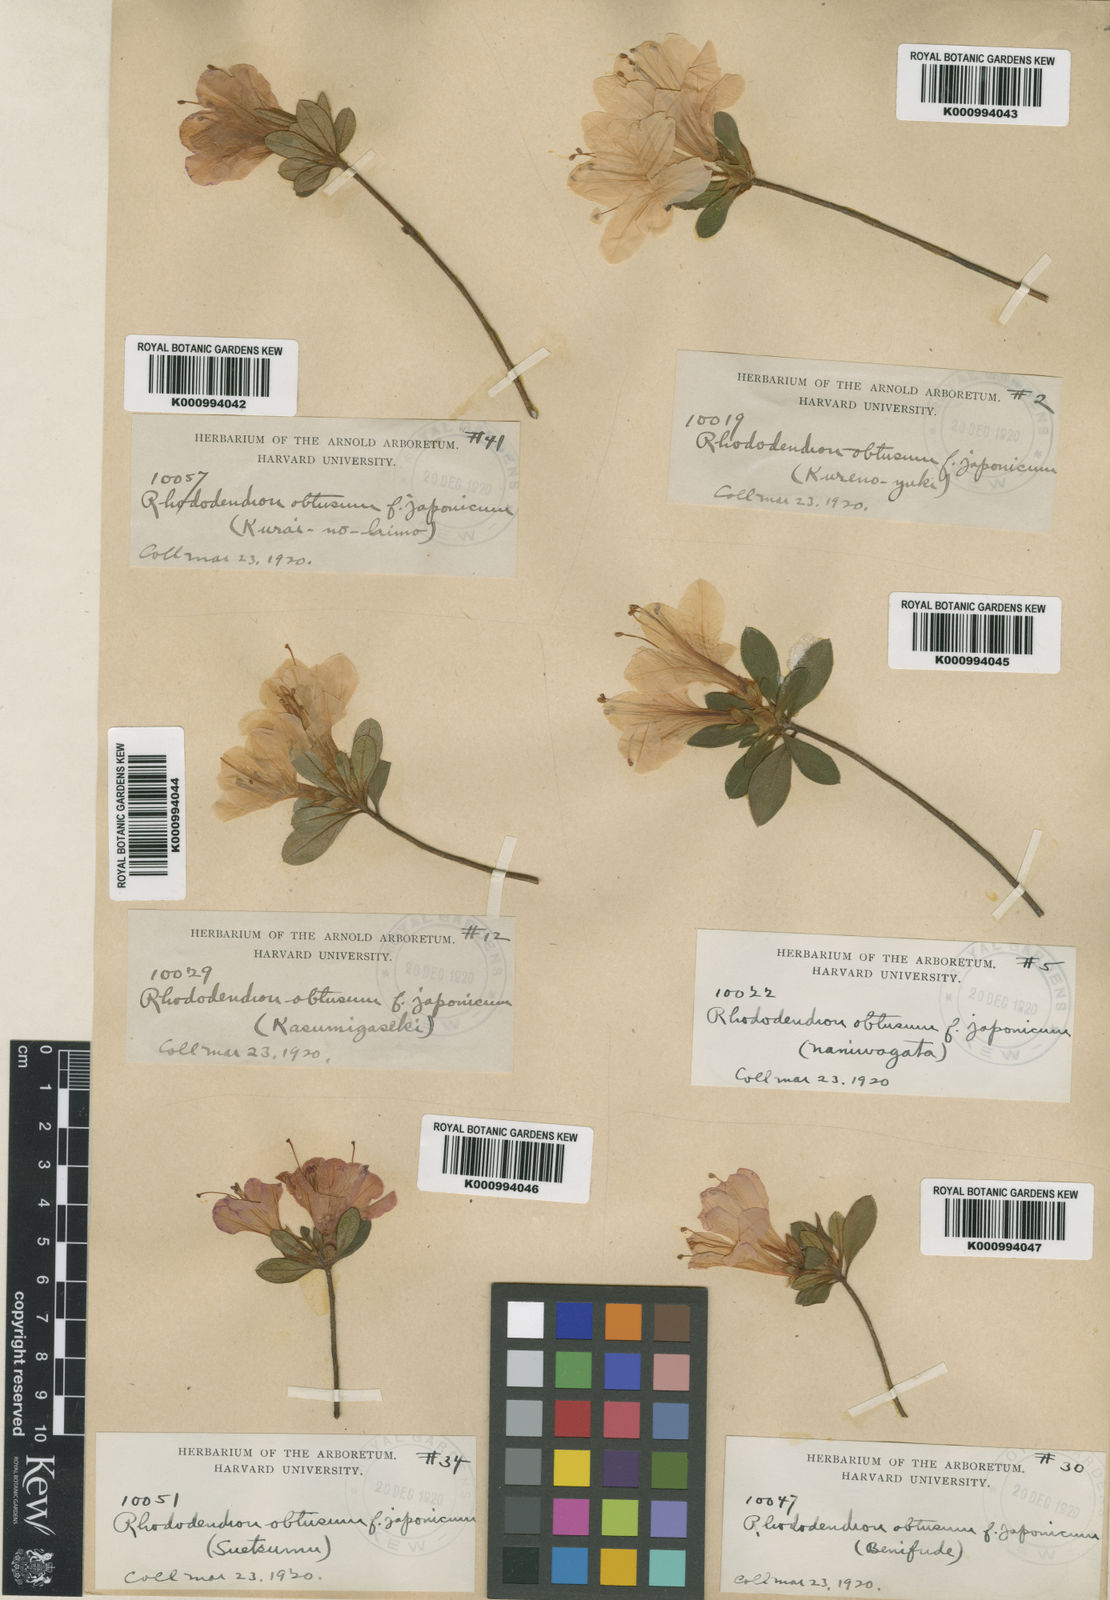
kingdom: Plantae
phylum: Tracheophyta
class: Magnoliopsida
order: Ericales
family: Ericaceae
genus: Rhododendron
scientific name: Rhododendron kiusianum
